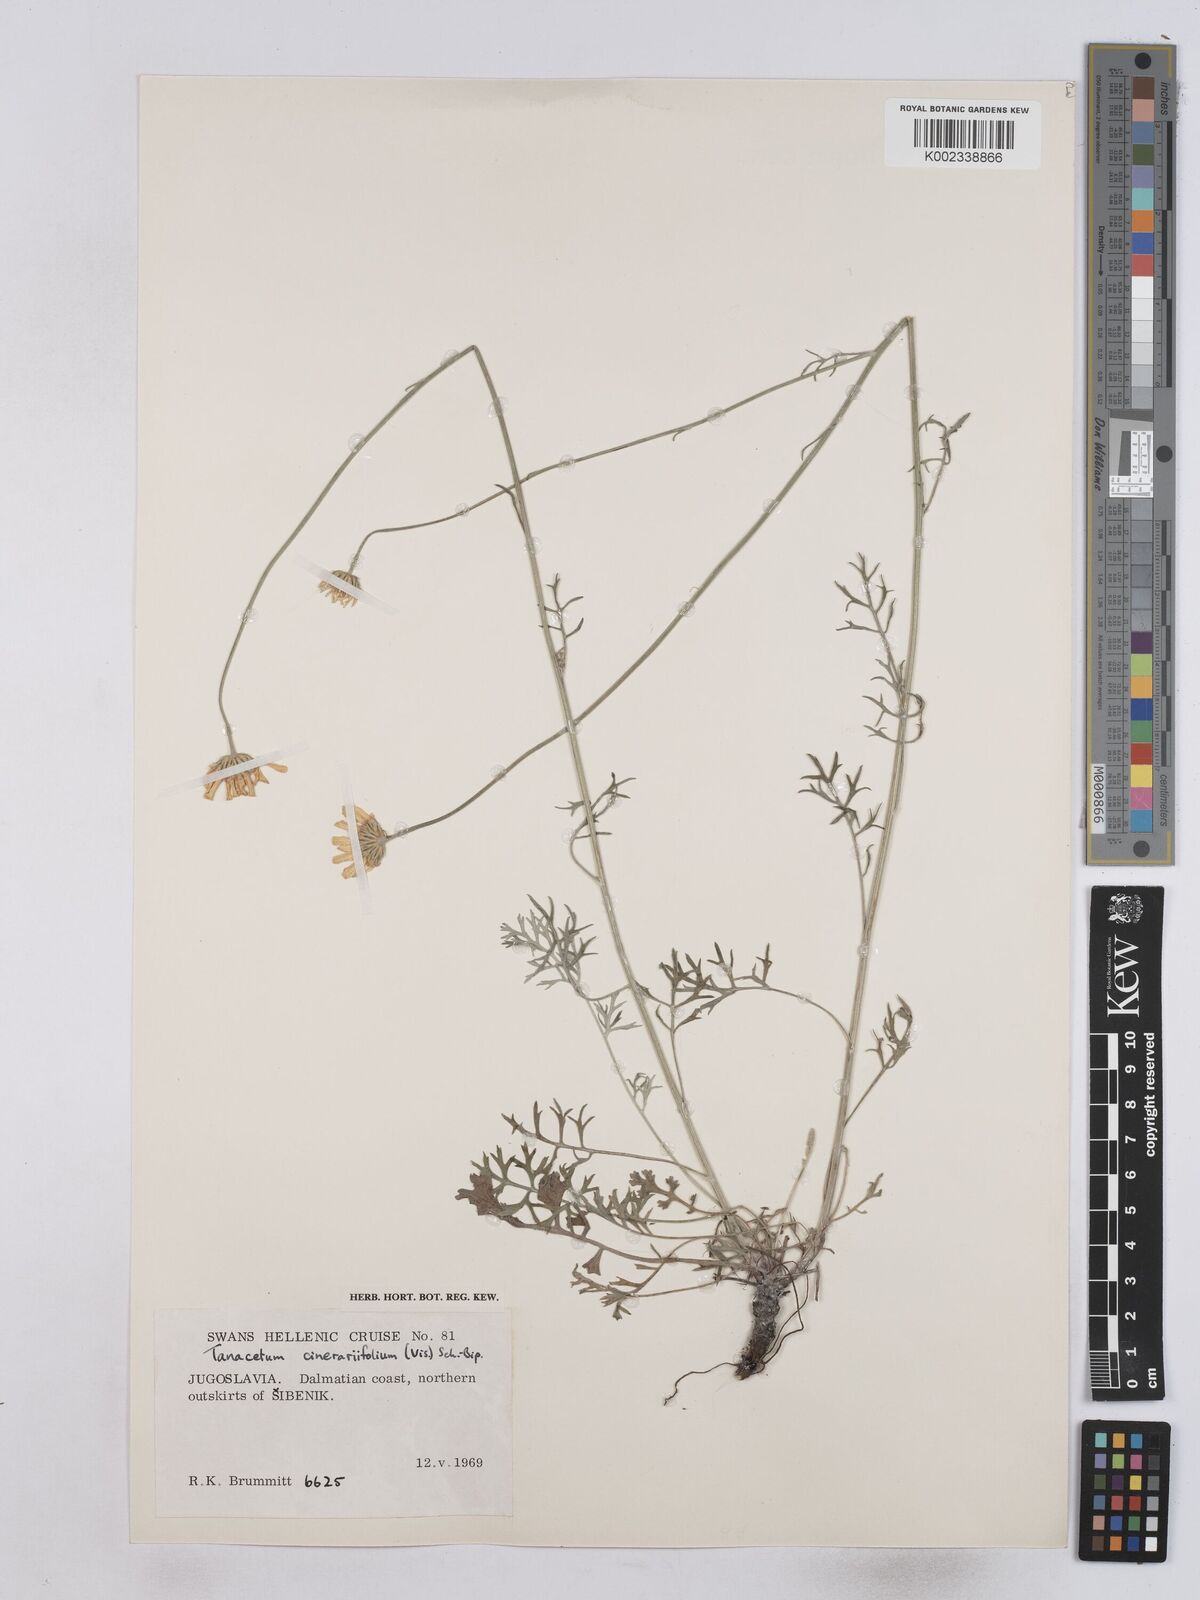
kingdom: Plantae
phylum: Tracheophyta
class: Magnoliopsida
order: Asterales
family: Asteraceae
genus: Tanacetum
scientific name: Tanacetum cinerariifolium
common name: Dalmatian pyrethrum
